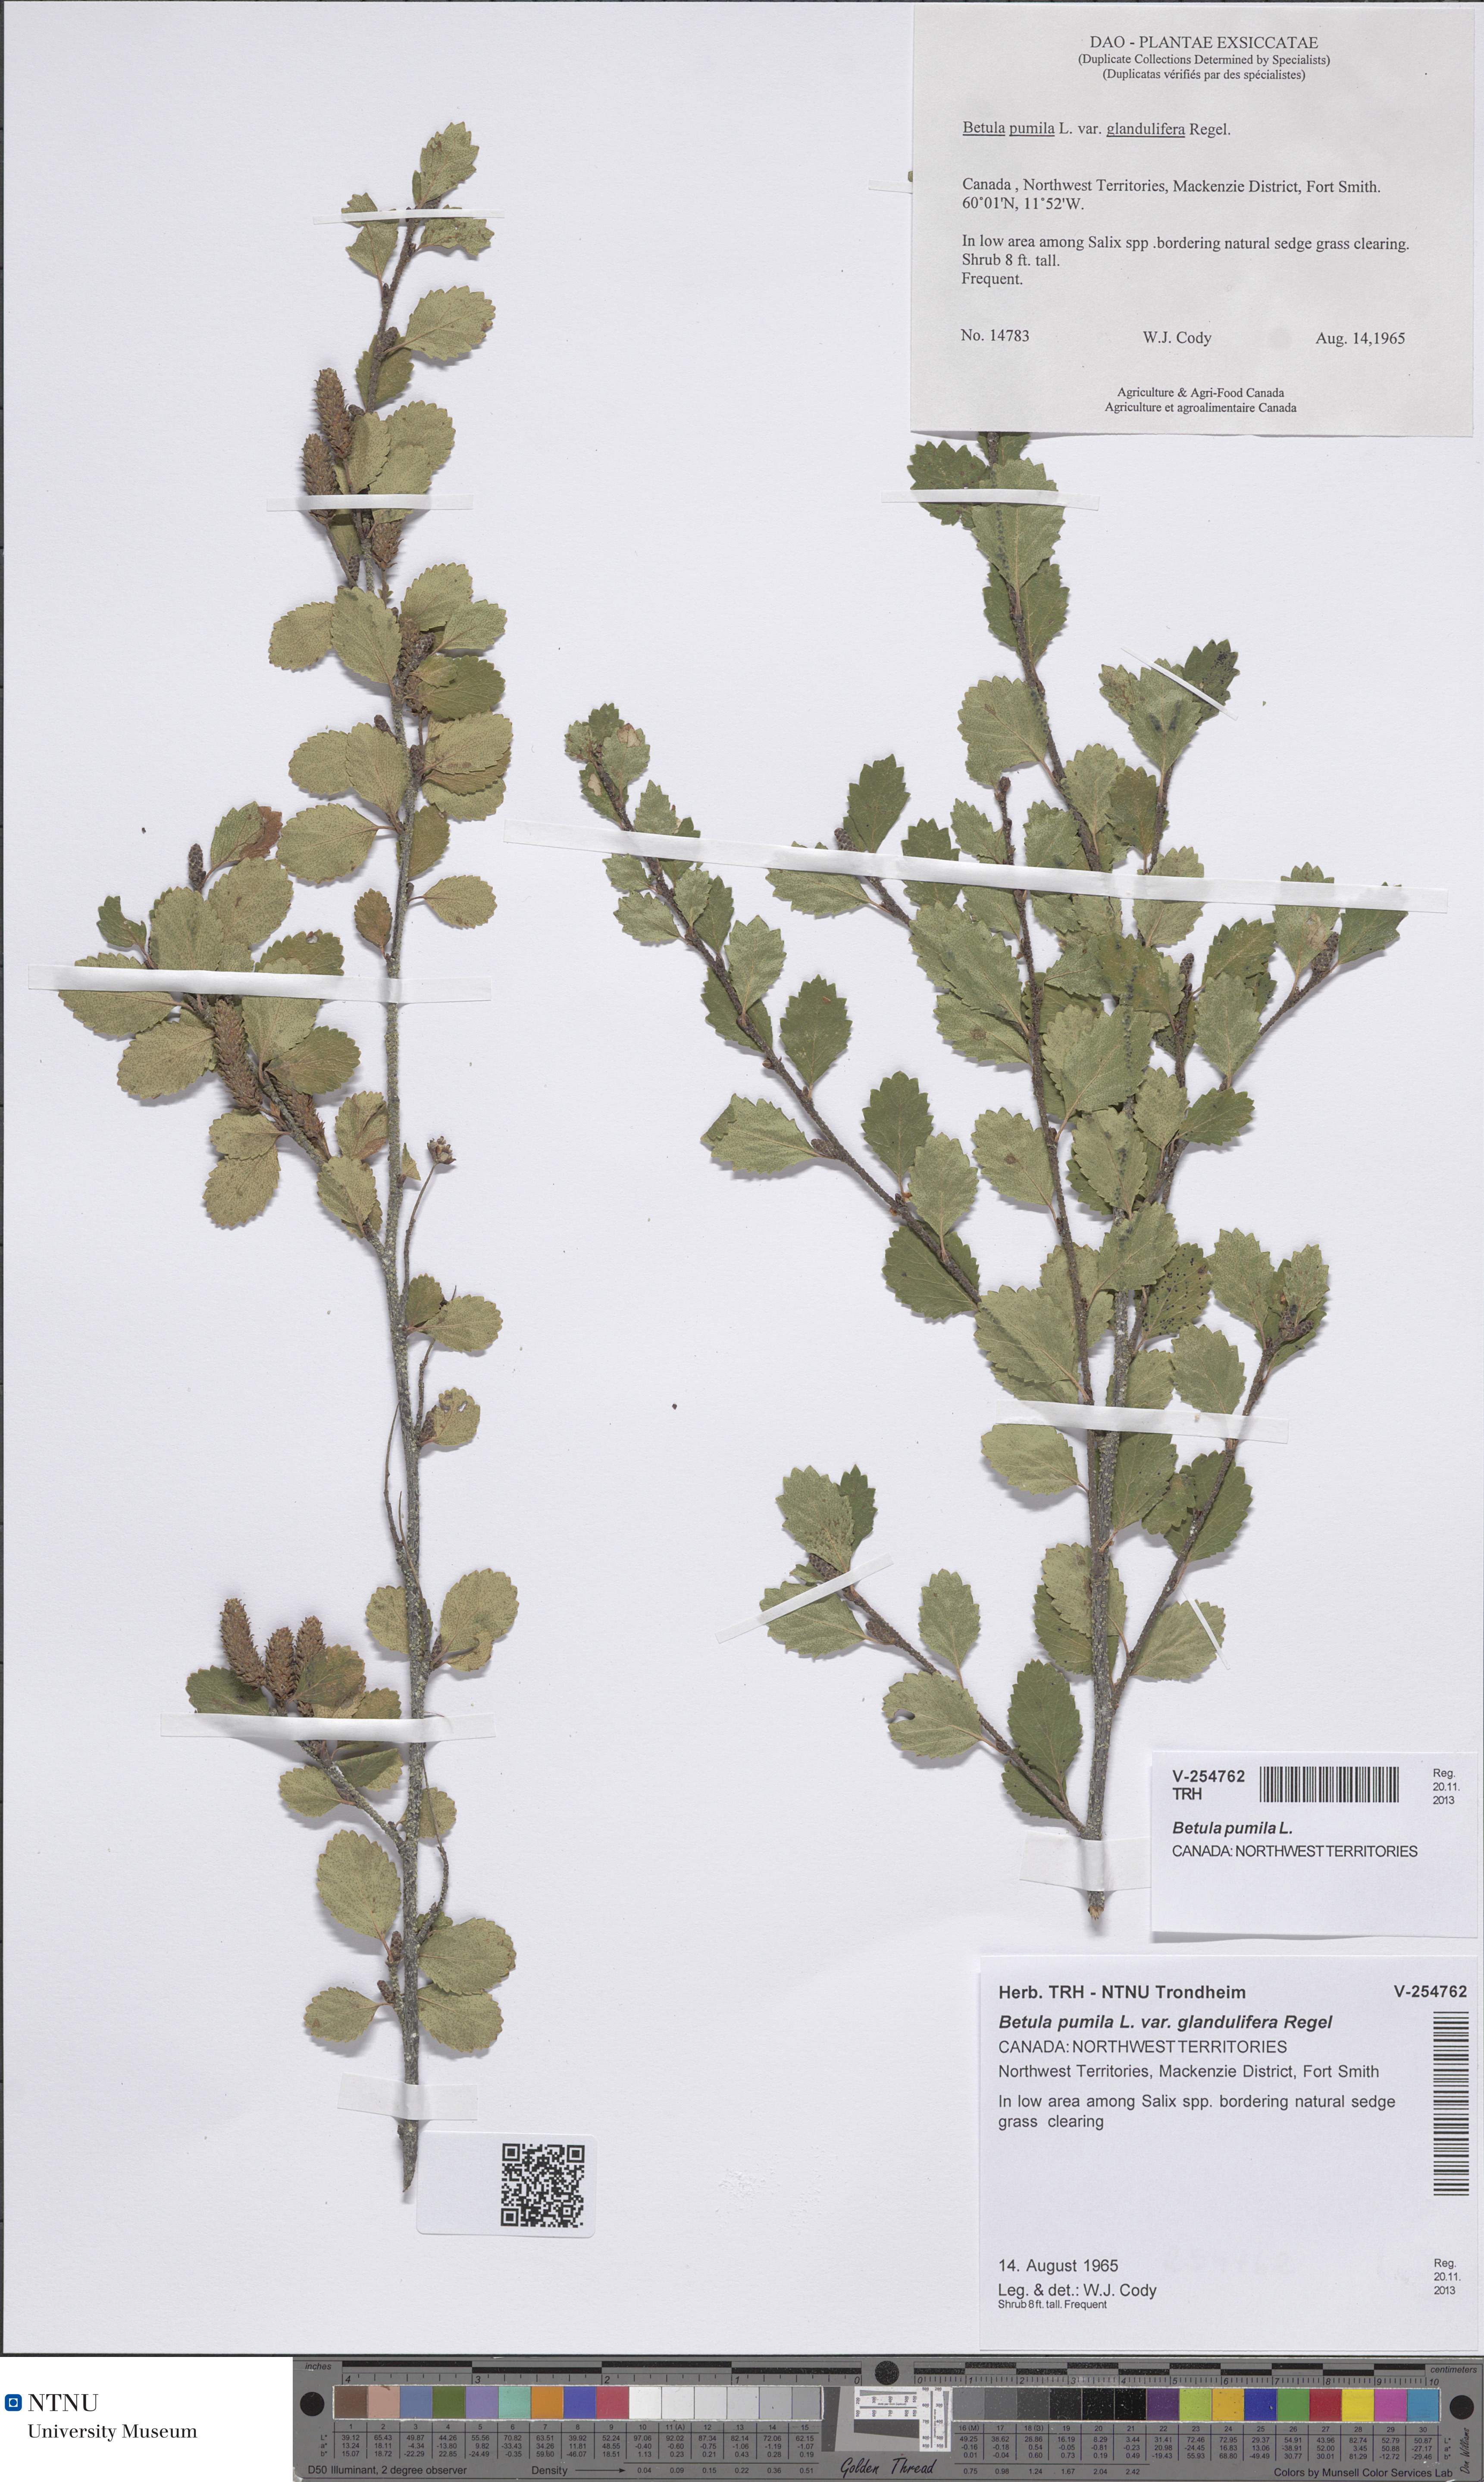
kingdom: Plantae
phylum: Tracheophyta
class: Magnoliopsida
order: Fagales
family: Betulaceae
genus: Betula
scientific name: Betula pumila
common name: Bog birch
